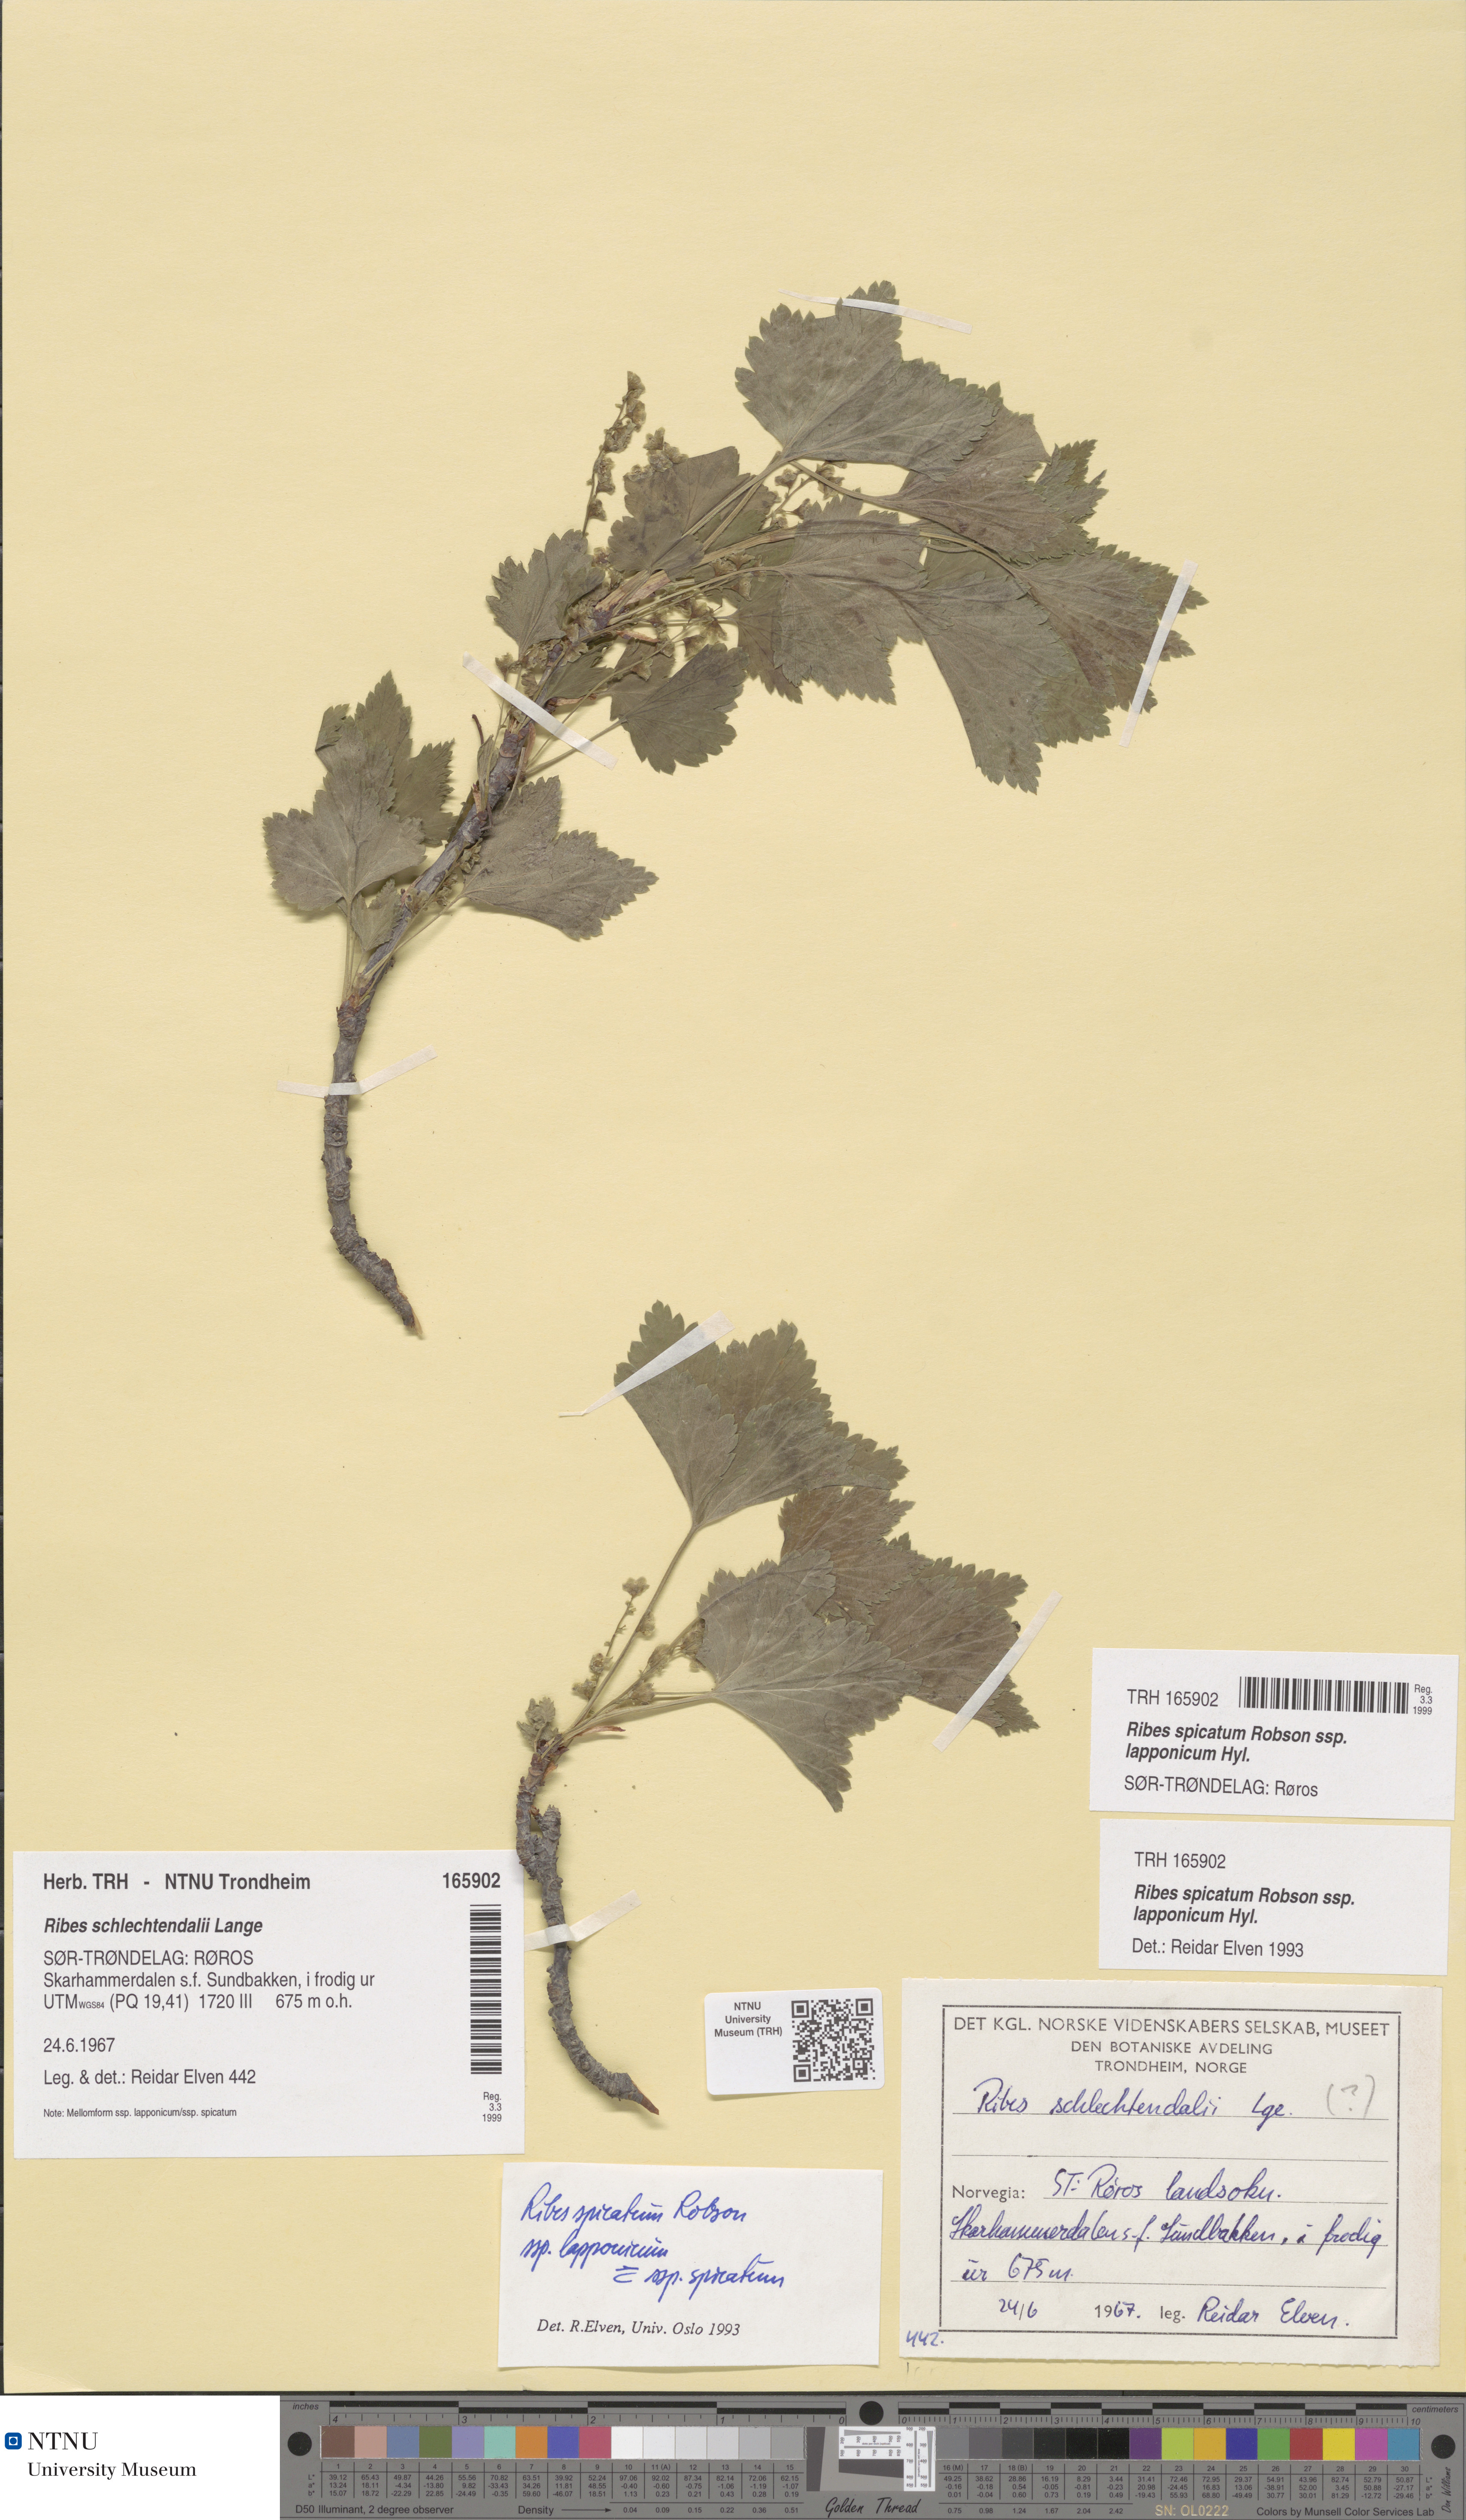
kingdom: Plantae
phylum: Tracheophyta
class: Magnoliopsida
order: Saxifragales
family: Grossulariaceae
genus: Ribes
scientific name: Ribes spicatum
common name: Downy currant
